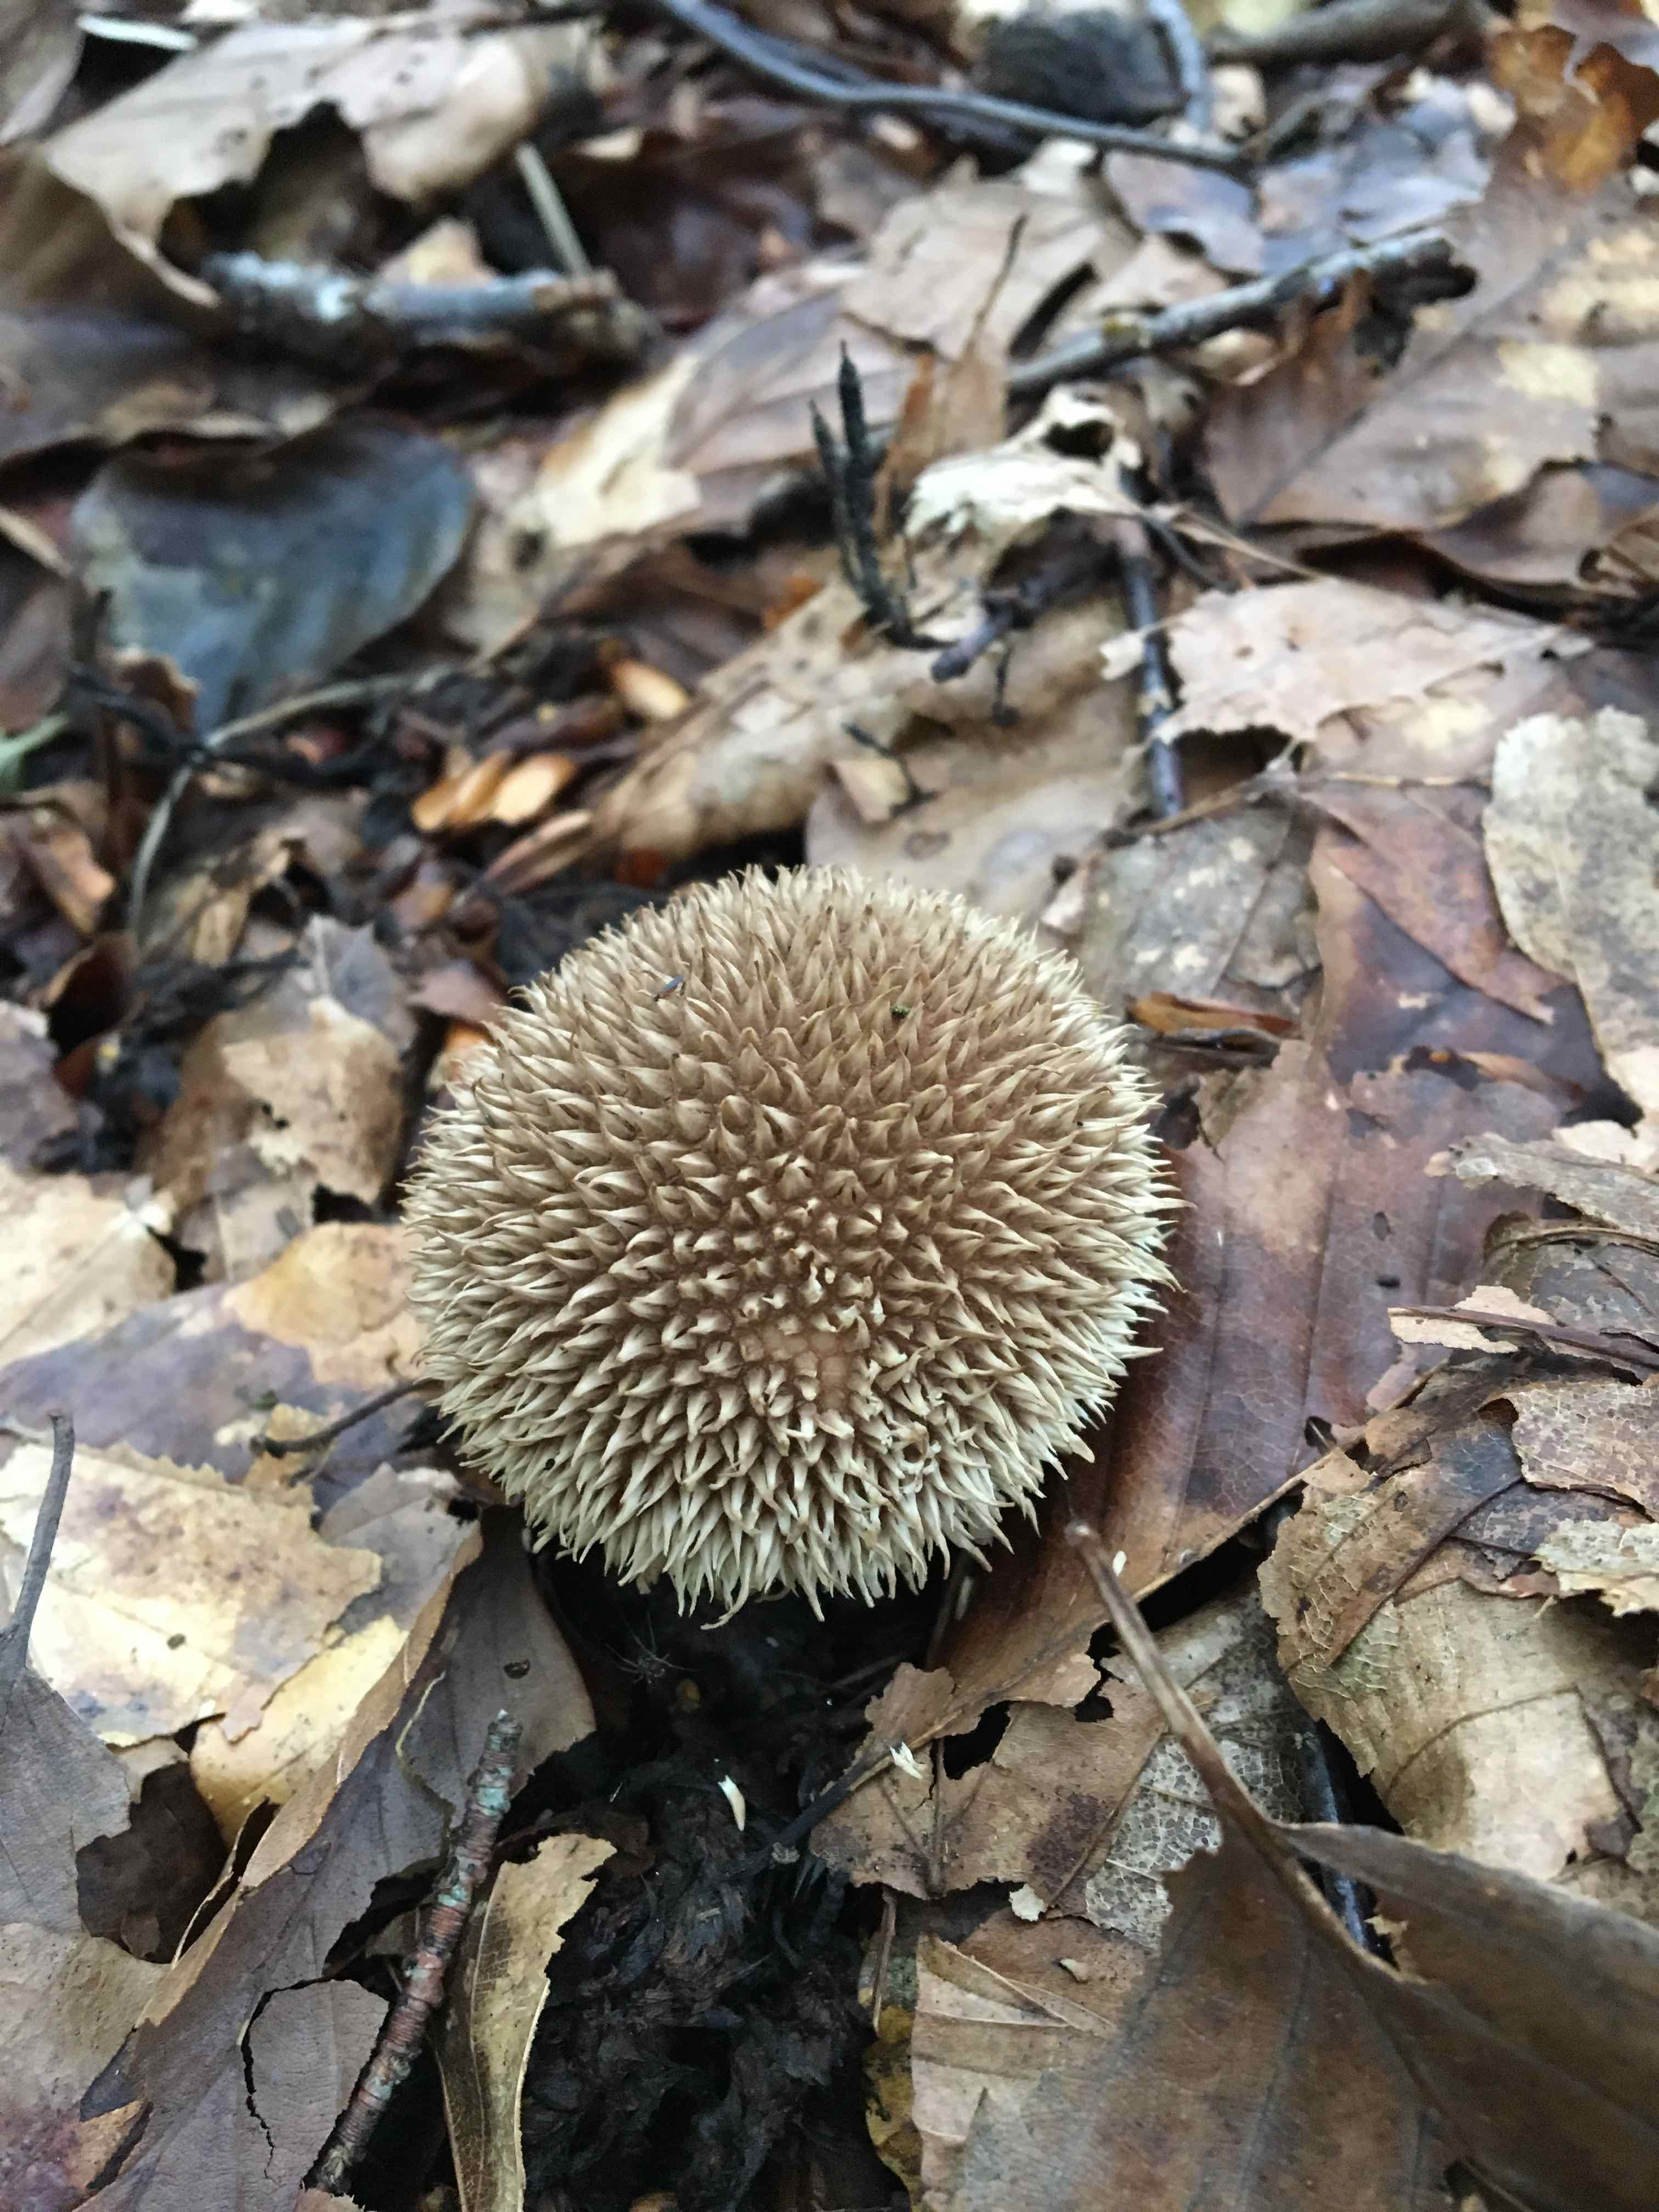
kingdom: Fungi
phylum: Basidiomycota
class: Agaricomycetes
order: Agaricales
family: Lycoperdaceae
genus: Lycoperdon
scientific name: Lycoperdon echinatum
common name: pindsvine-støvbold
